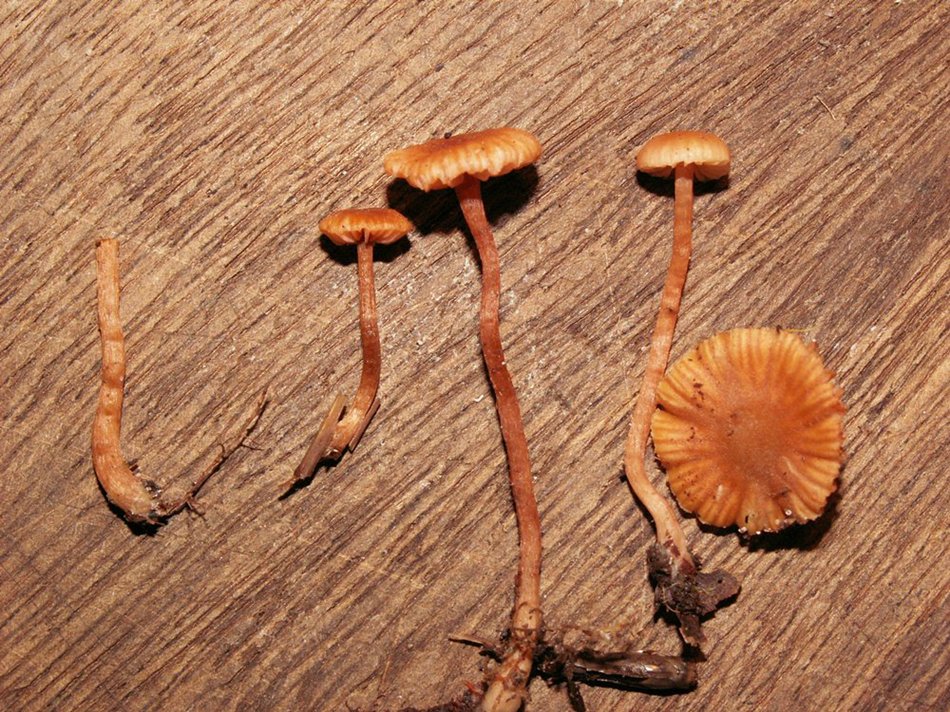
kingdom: Fungi
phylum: Basidiomycota
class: Agaricomycetes
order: Agaricales
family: Hydnangiaceae
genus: Laccaria
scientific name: Laccaria laccata
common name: rød ametysthat
